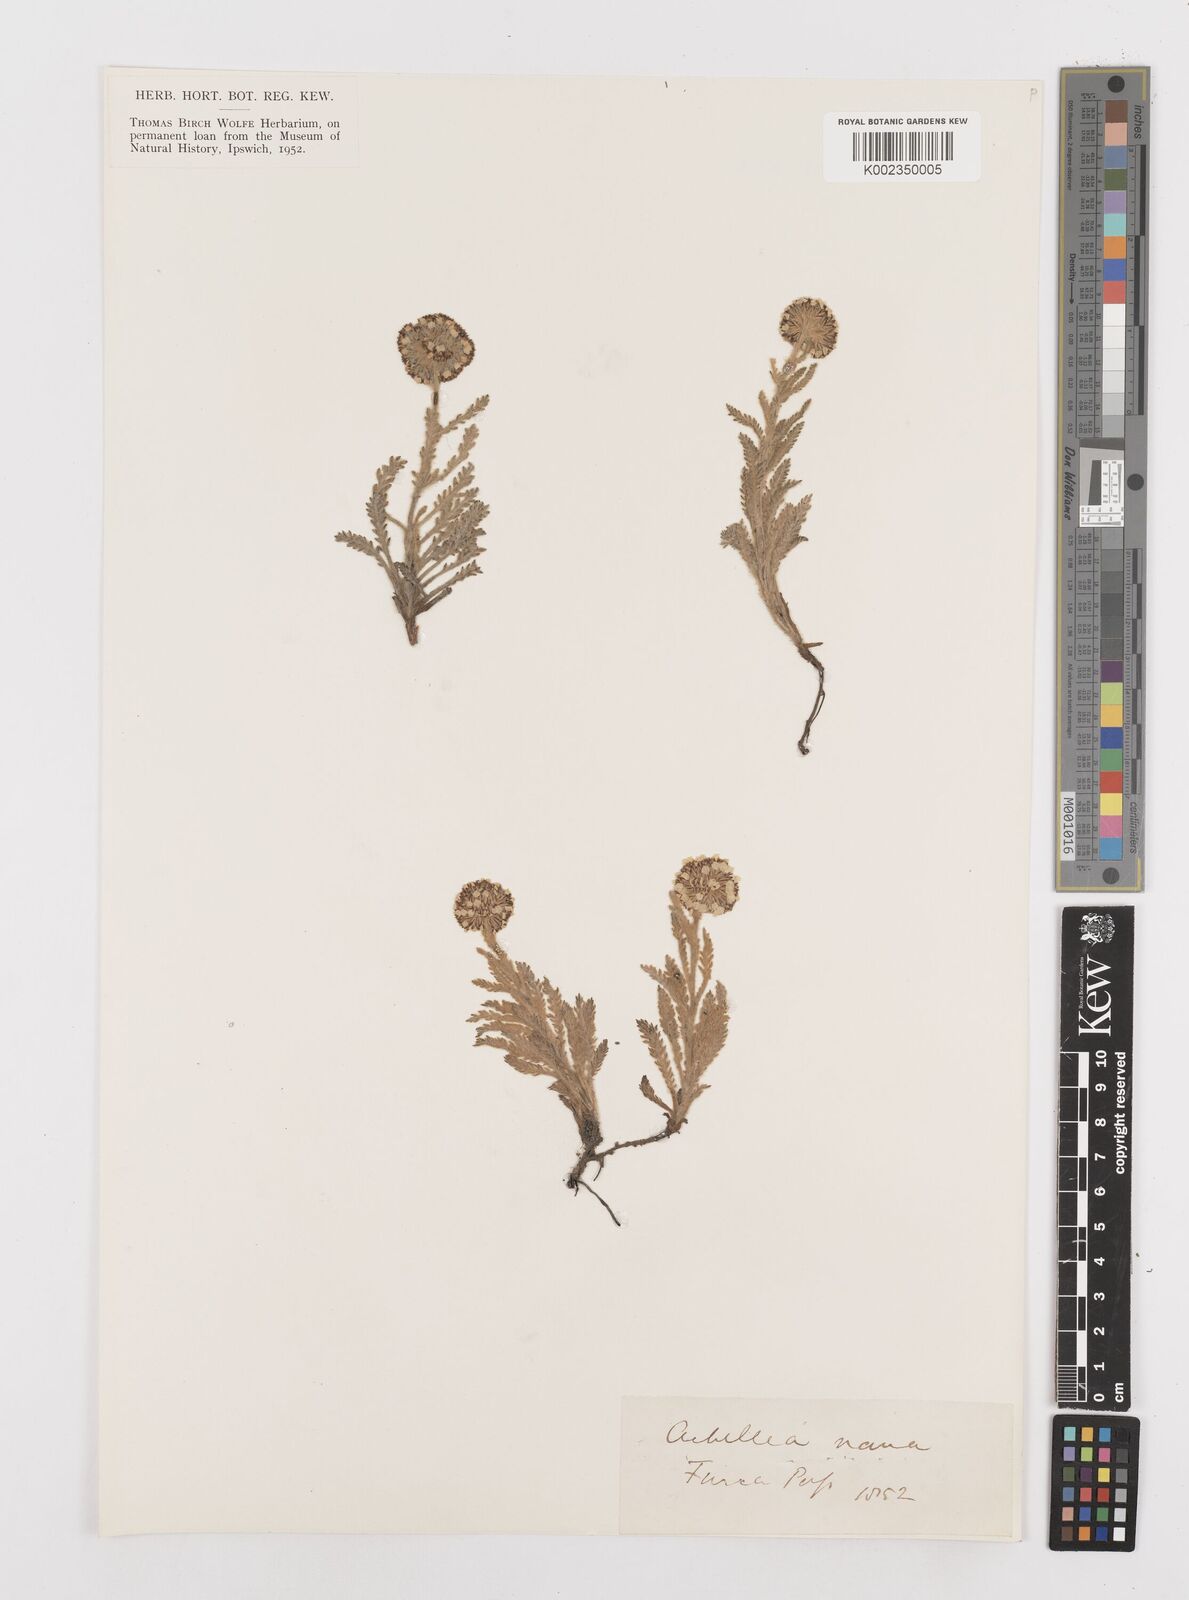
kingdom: Plantae
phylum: Tracheophyta
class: Magnoliopsida
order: Asterales
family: Asteraceae
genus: Achillea
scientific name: Achillea nana
